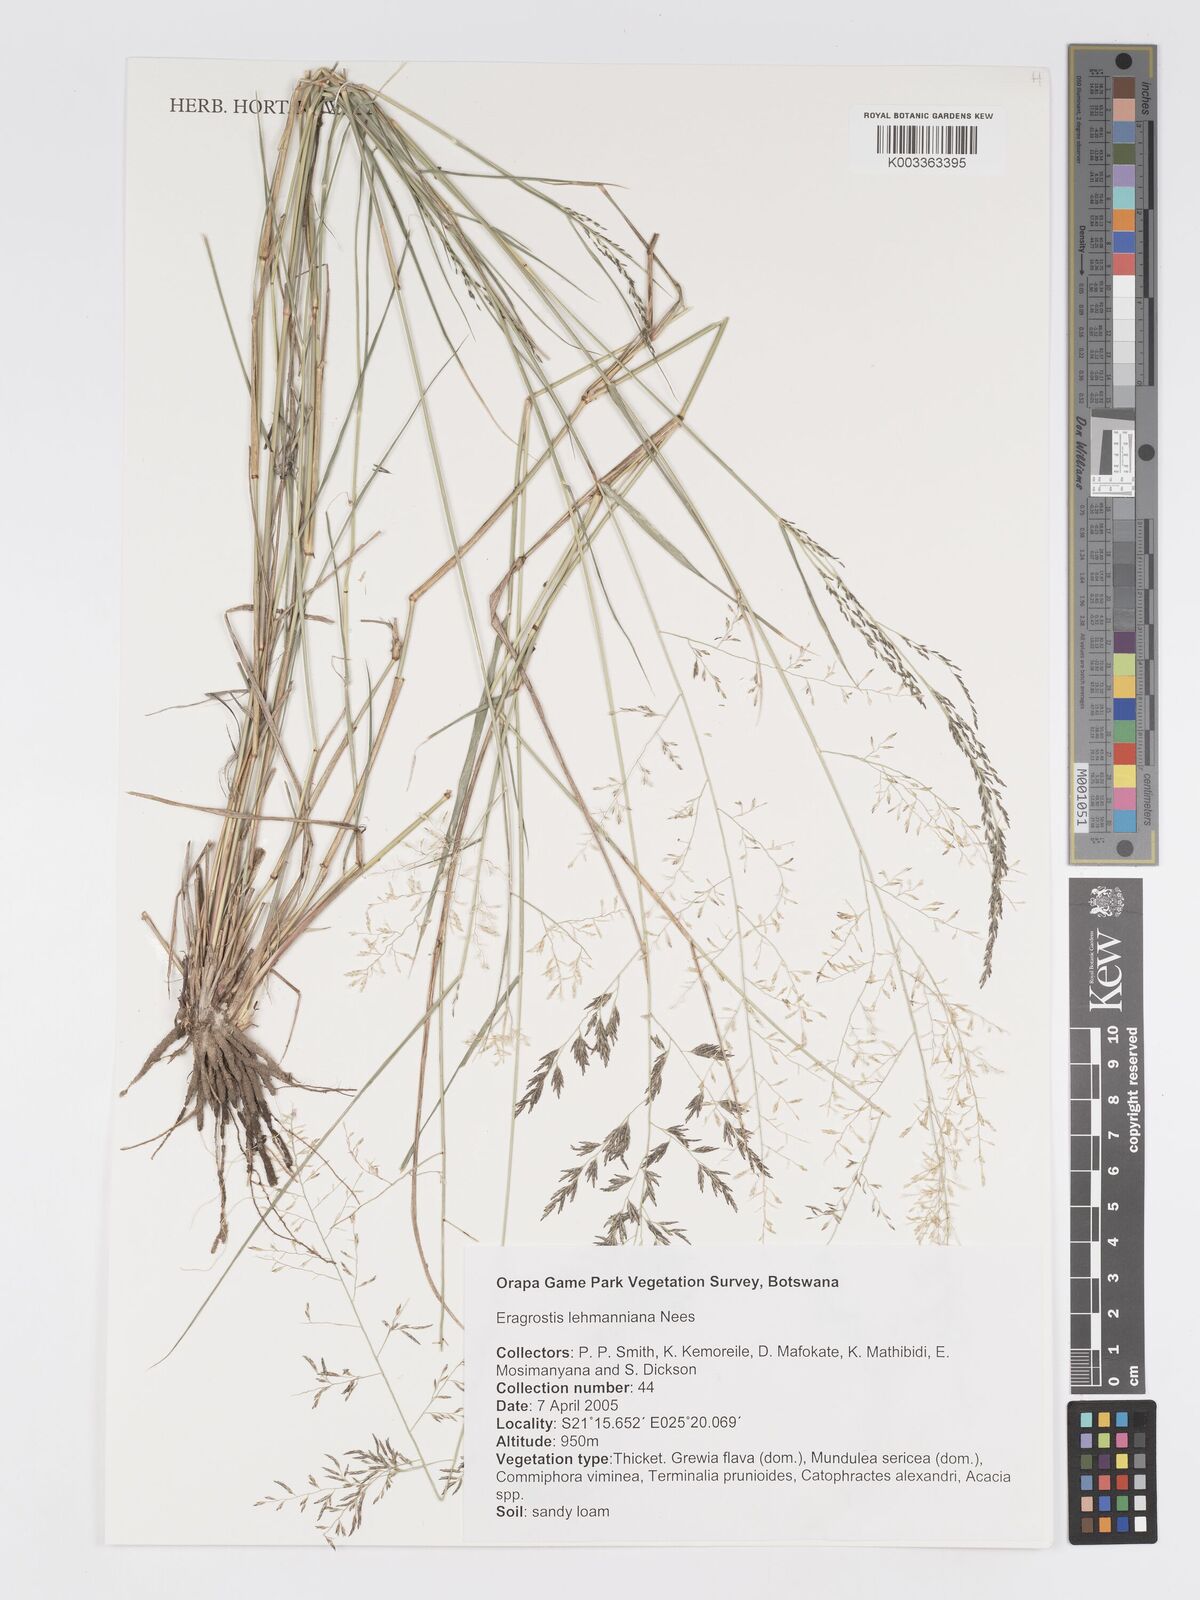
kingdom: Plantae
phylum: Tracheophyta
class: Liliopsida
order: Poales
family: Poaceae
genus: Eragrostis
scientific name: Eragrostis lehmanniana
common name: Lehmann lovegrass
